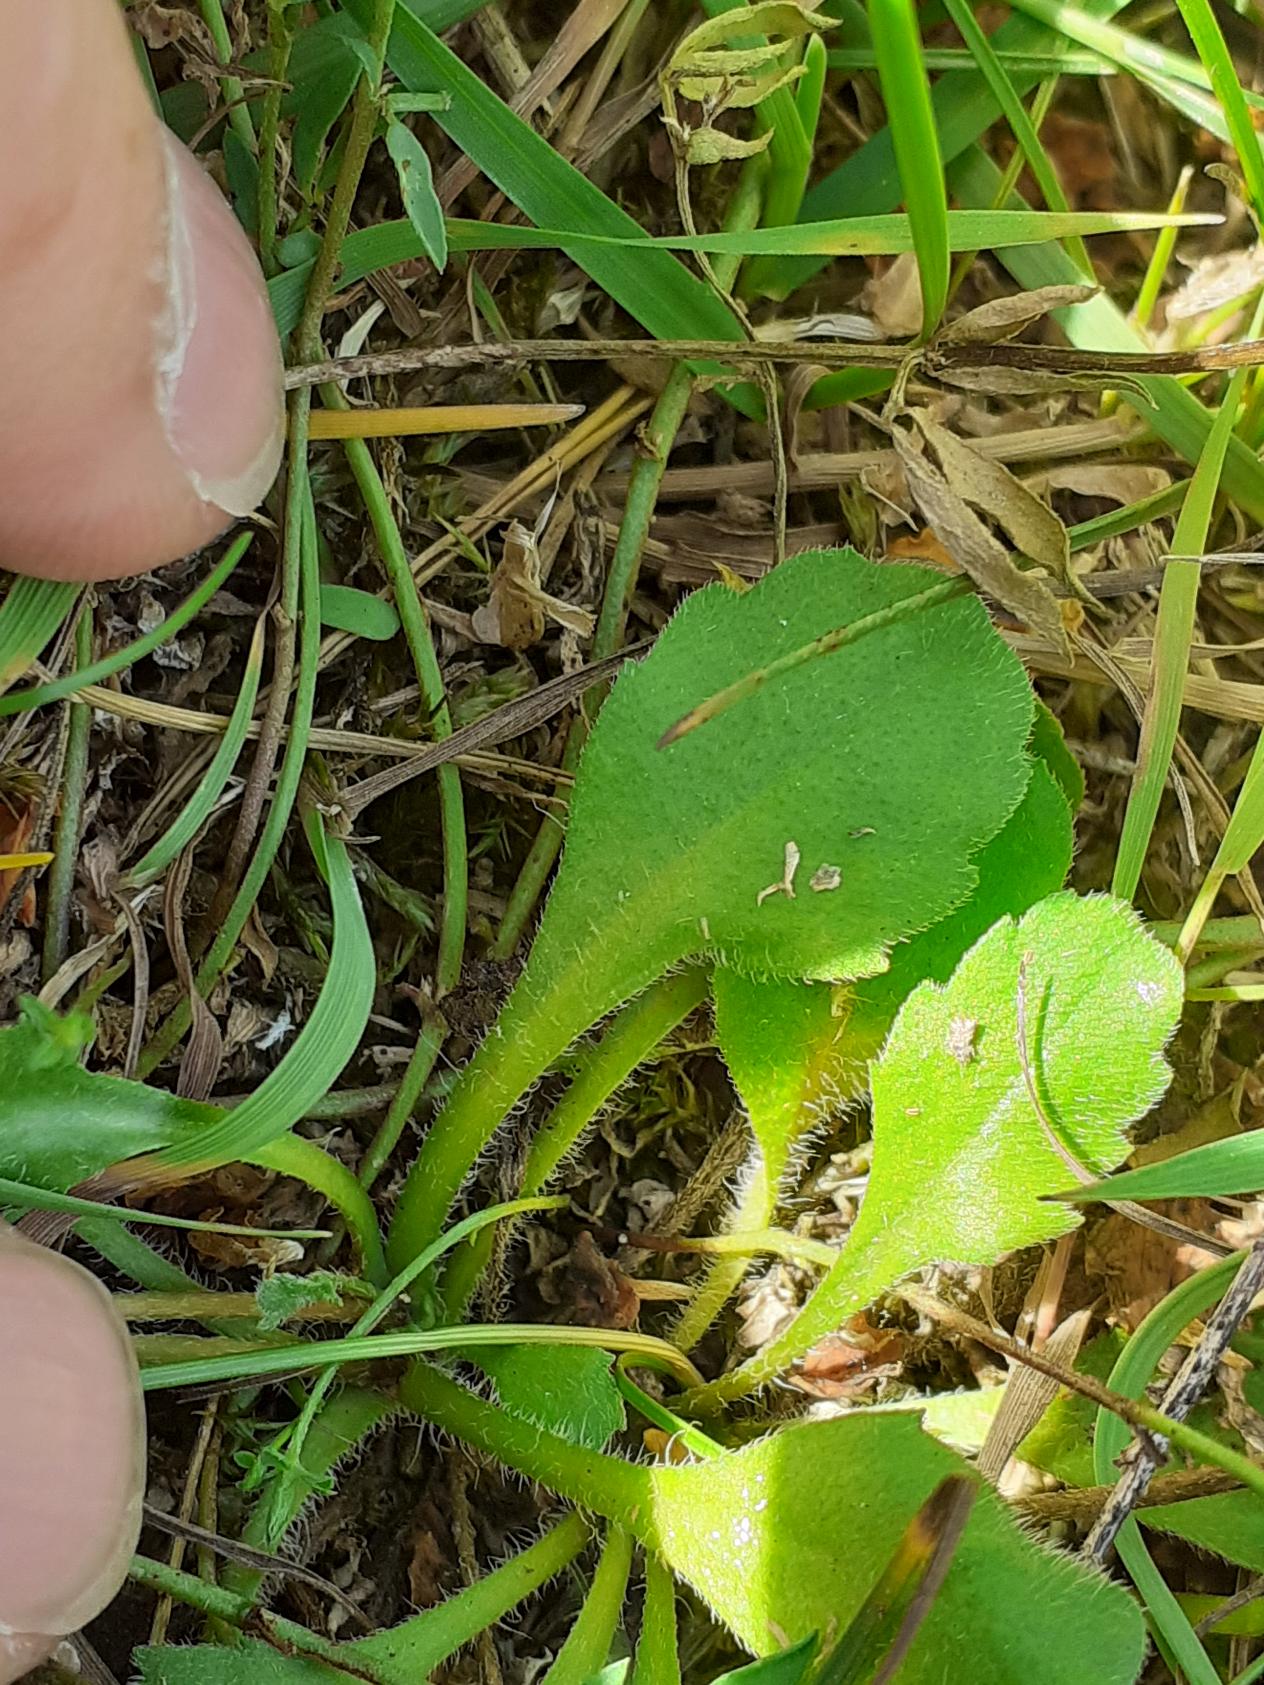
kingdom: Plantae
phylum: Tracheophyta
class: Magnoliopsida
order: Asterales
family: Asteraceae
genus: Bellis
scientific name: Bellis perennis
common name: Tusindfryd
